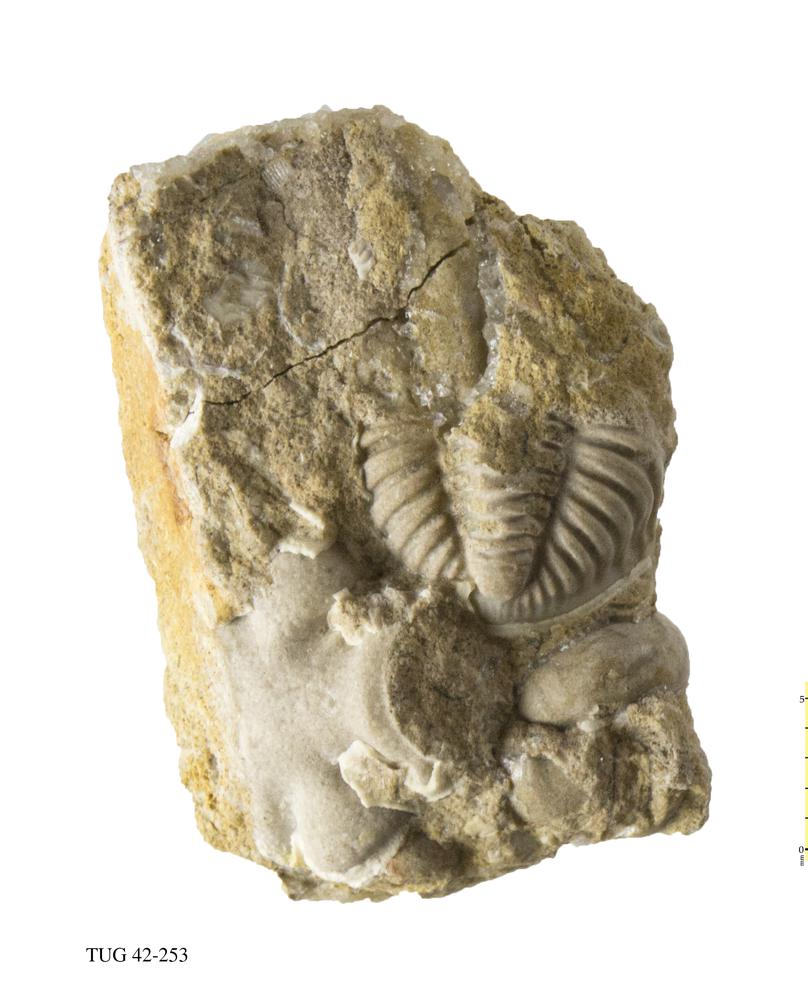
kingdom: Animalia
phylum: Arthropoda
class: Trilobita
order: Phacopida
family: Phacopidae
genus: Phacops
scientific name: Phacops
